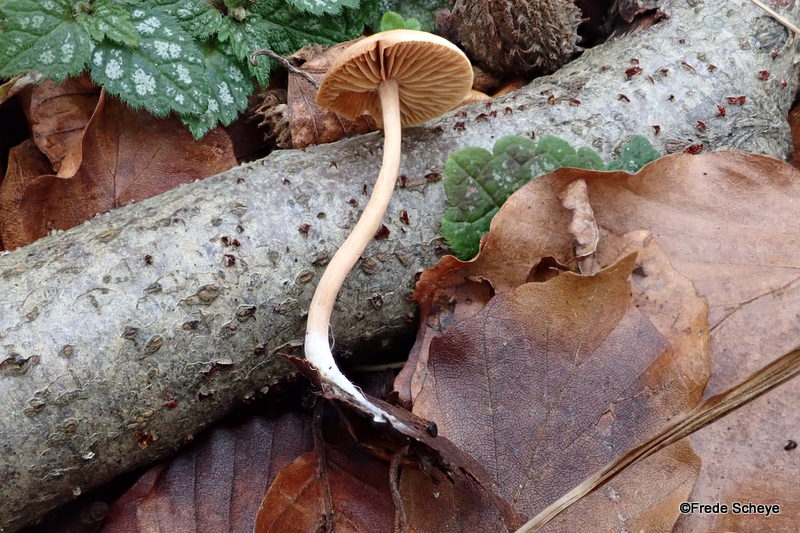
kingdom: Fungi
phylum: Basidiomycota
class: Agaricomycetes
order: Agaricales
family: Tubariaceae
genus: Tubaria
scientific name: Tubaria furfuracea
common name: kliddet fnughat
